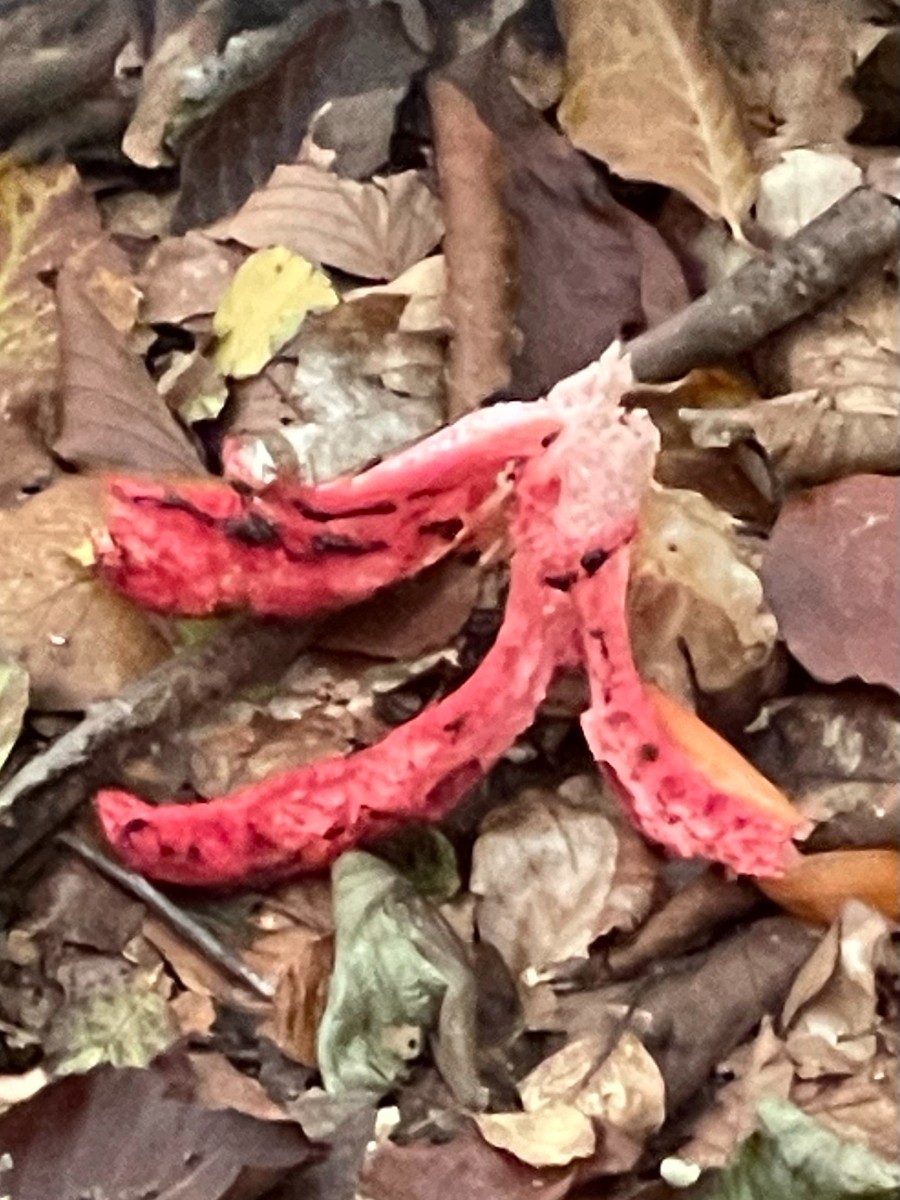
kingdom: Fungi
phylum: Basidiomycota
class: Agaricomycetes
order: Phallales
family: Phallaceae
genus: Clathrus
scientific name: Clathrus archeri
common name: blækspruttesvamp
